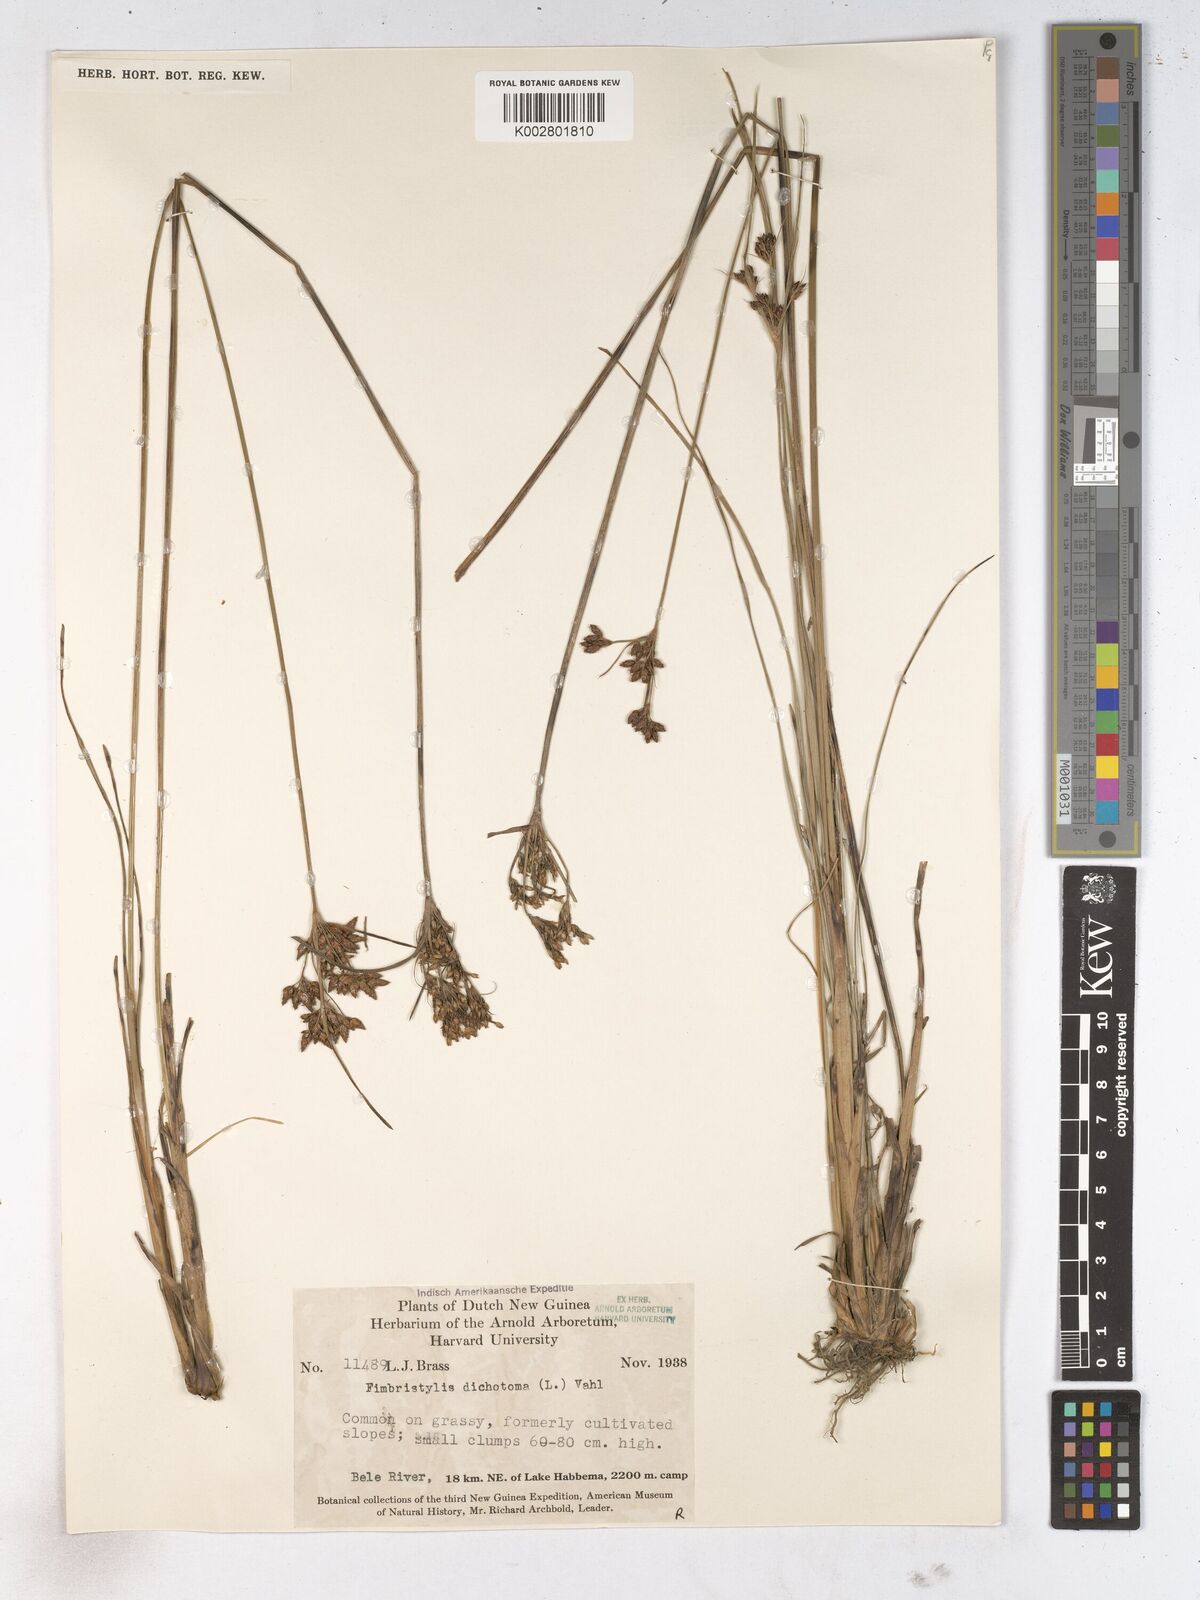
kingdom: Plantae
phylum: Tracheophyta
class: Liliopsida
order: Poales
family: Cyperaceae
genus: Fimbristylis
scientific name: Fimbristylis dichotoma
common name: Forked fimbry
